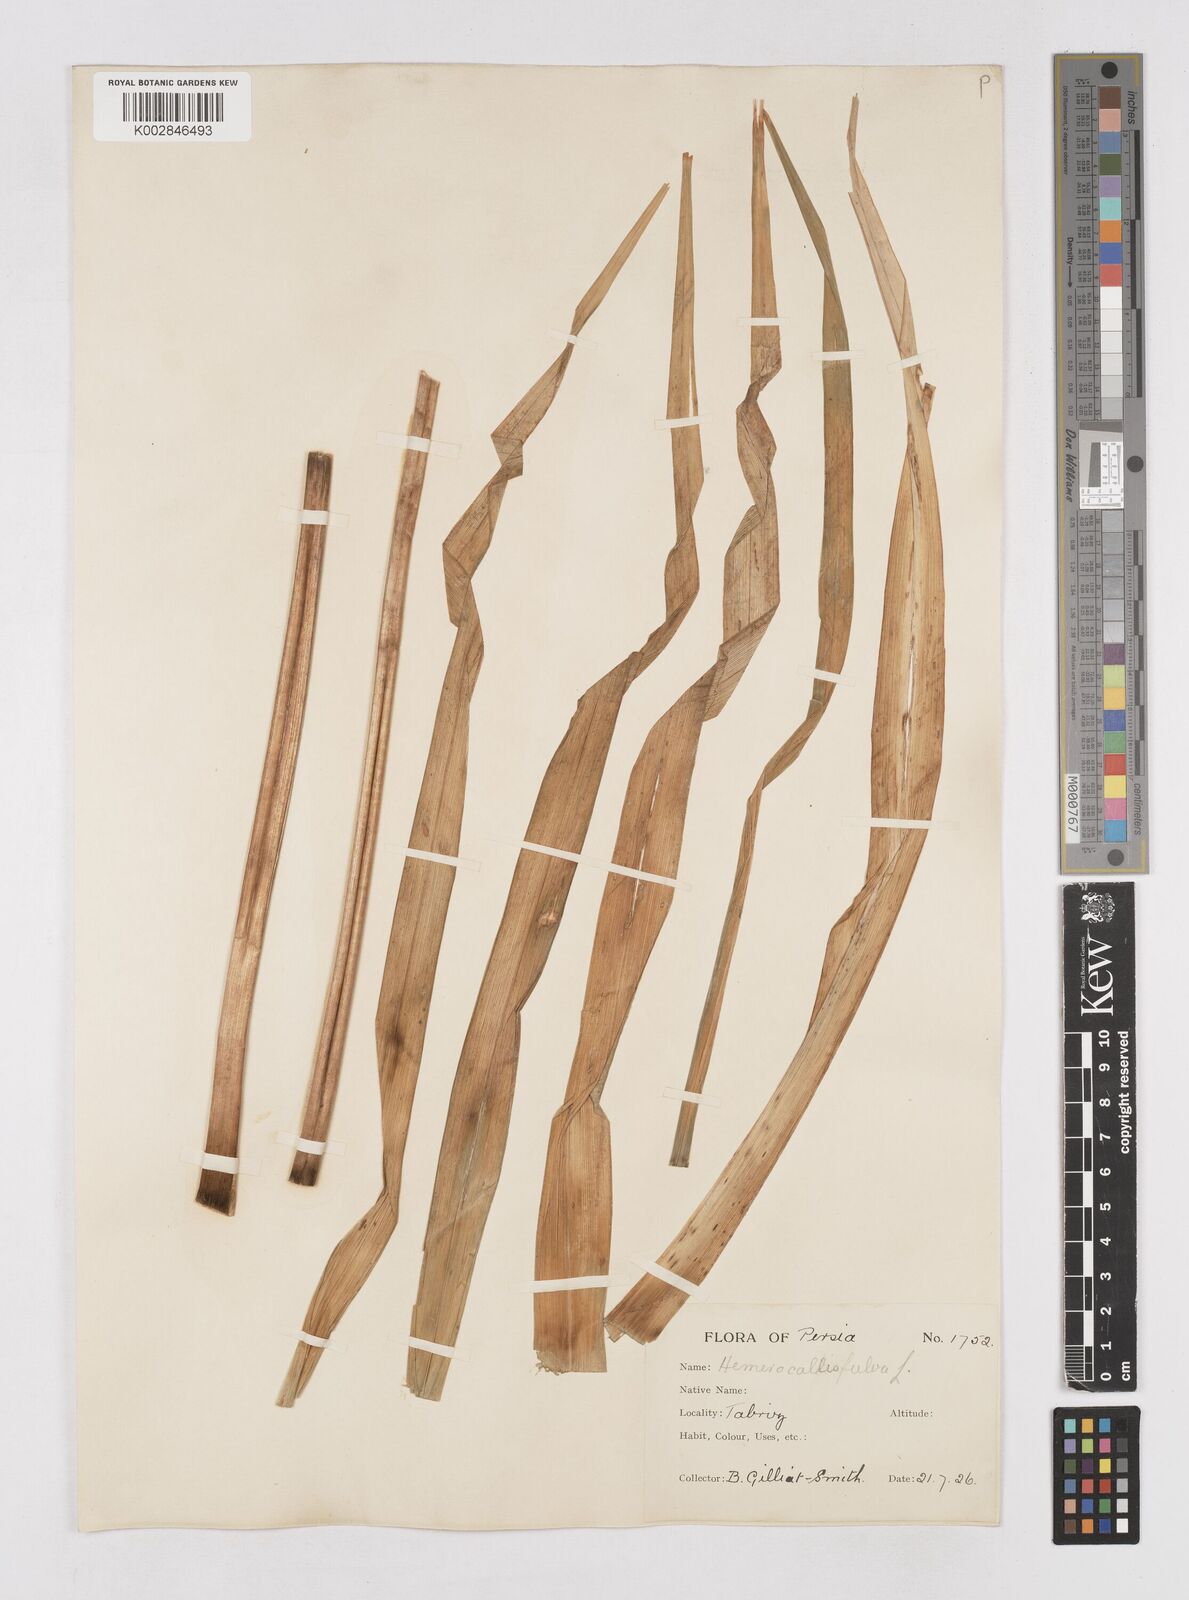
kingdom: Plantae
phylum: Tracheophyta
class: Liliopsida
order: Asparagales
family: Asphodelaceae
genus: Hemerocallis
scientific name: Hemerocallis lilioasphodelus
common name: Yellow day-lily
